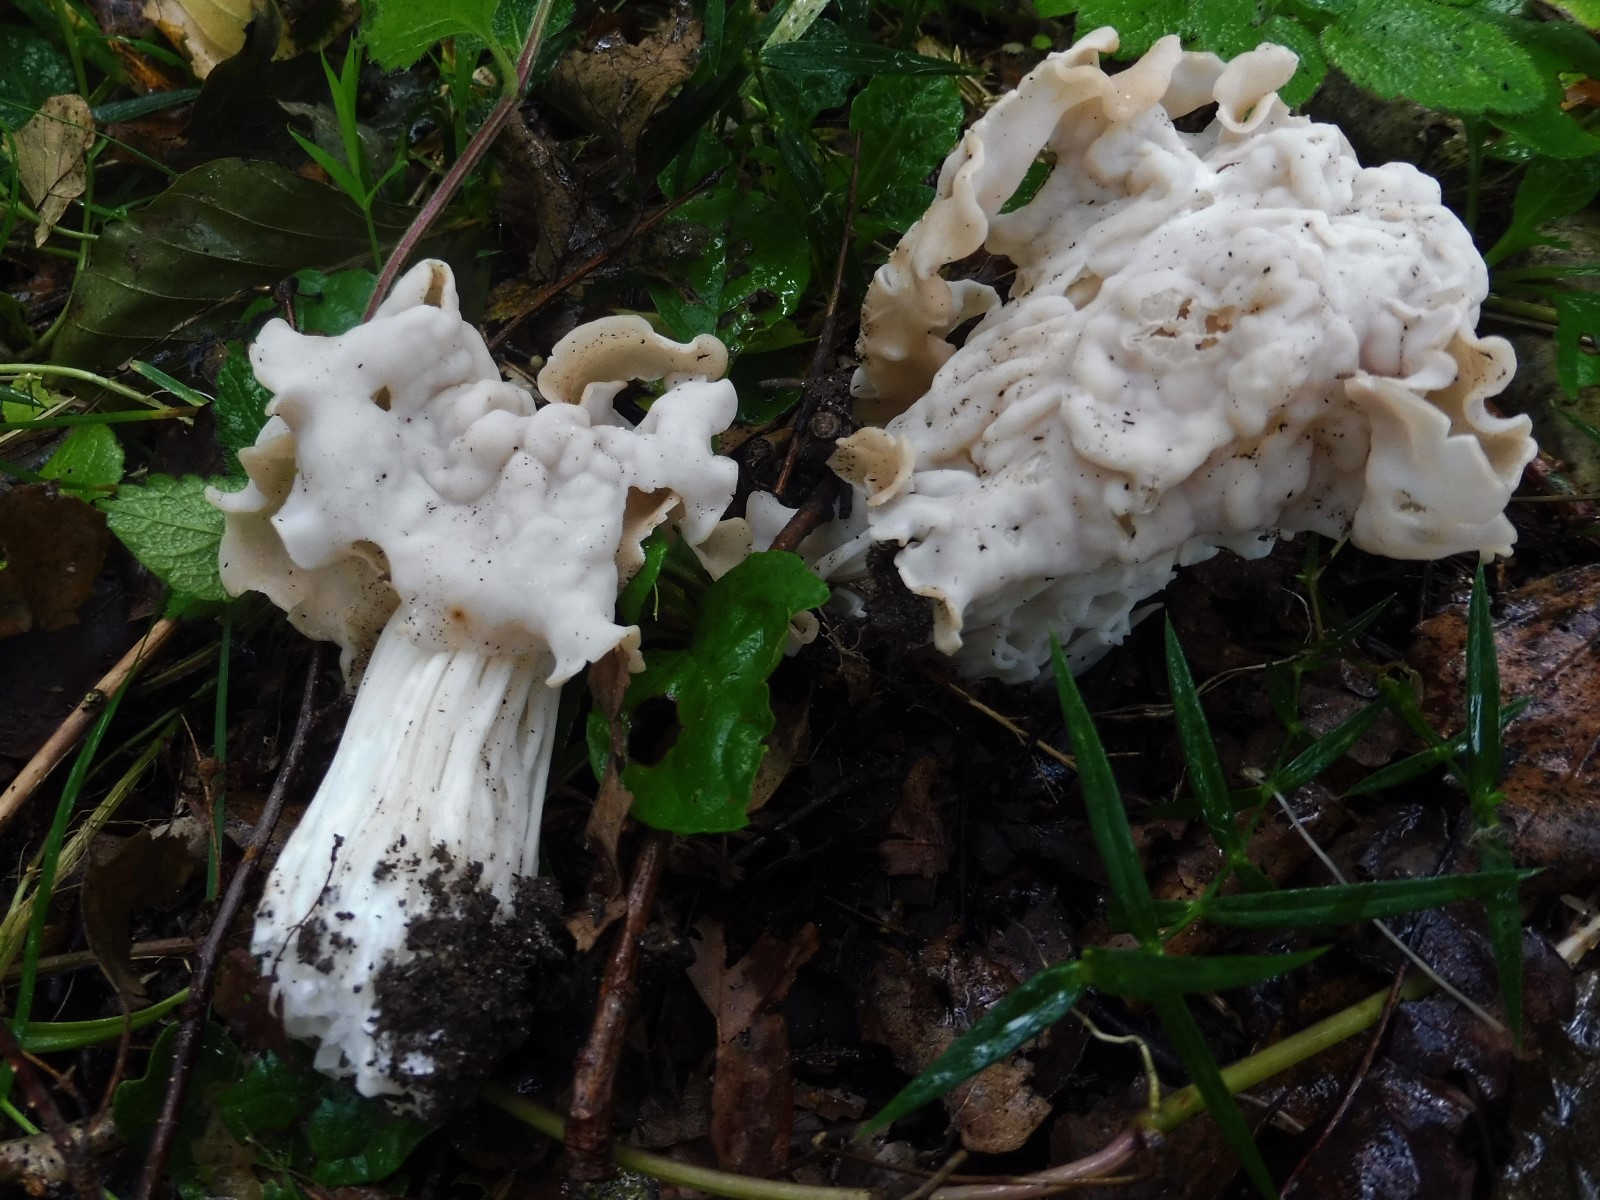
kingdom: Fungi
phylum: Ascomycota
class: Pezizomycetes
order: Pezizales
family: Helvellaceae
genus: Helvella
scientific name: Helvella crispa
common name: kruset foldhat
